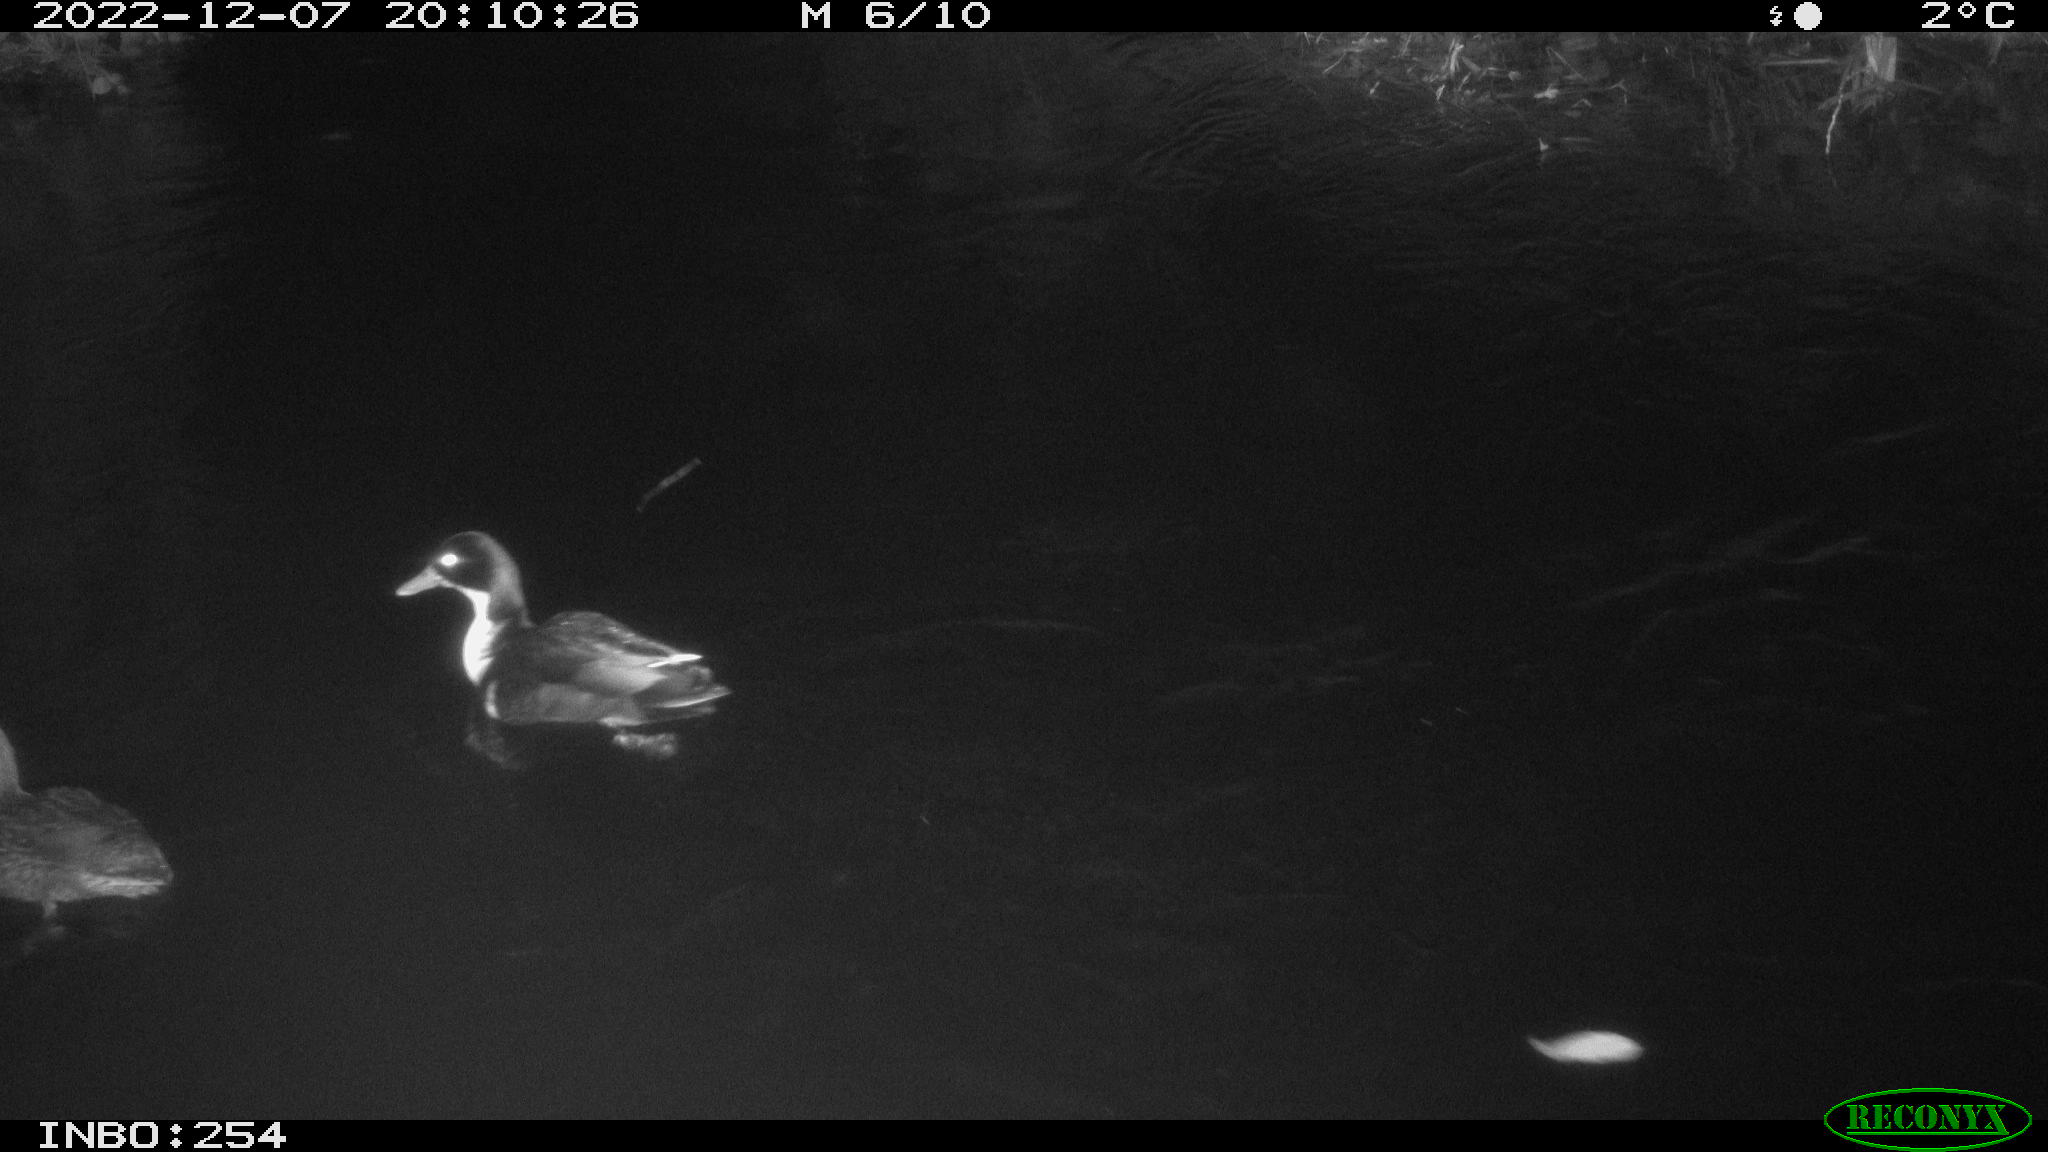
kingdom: Animalia
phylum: Chordata
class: Aves
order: Anseriformes
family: Anatidae
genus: Anas
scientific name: Anas
